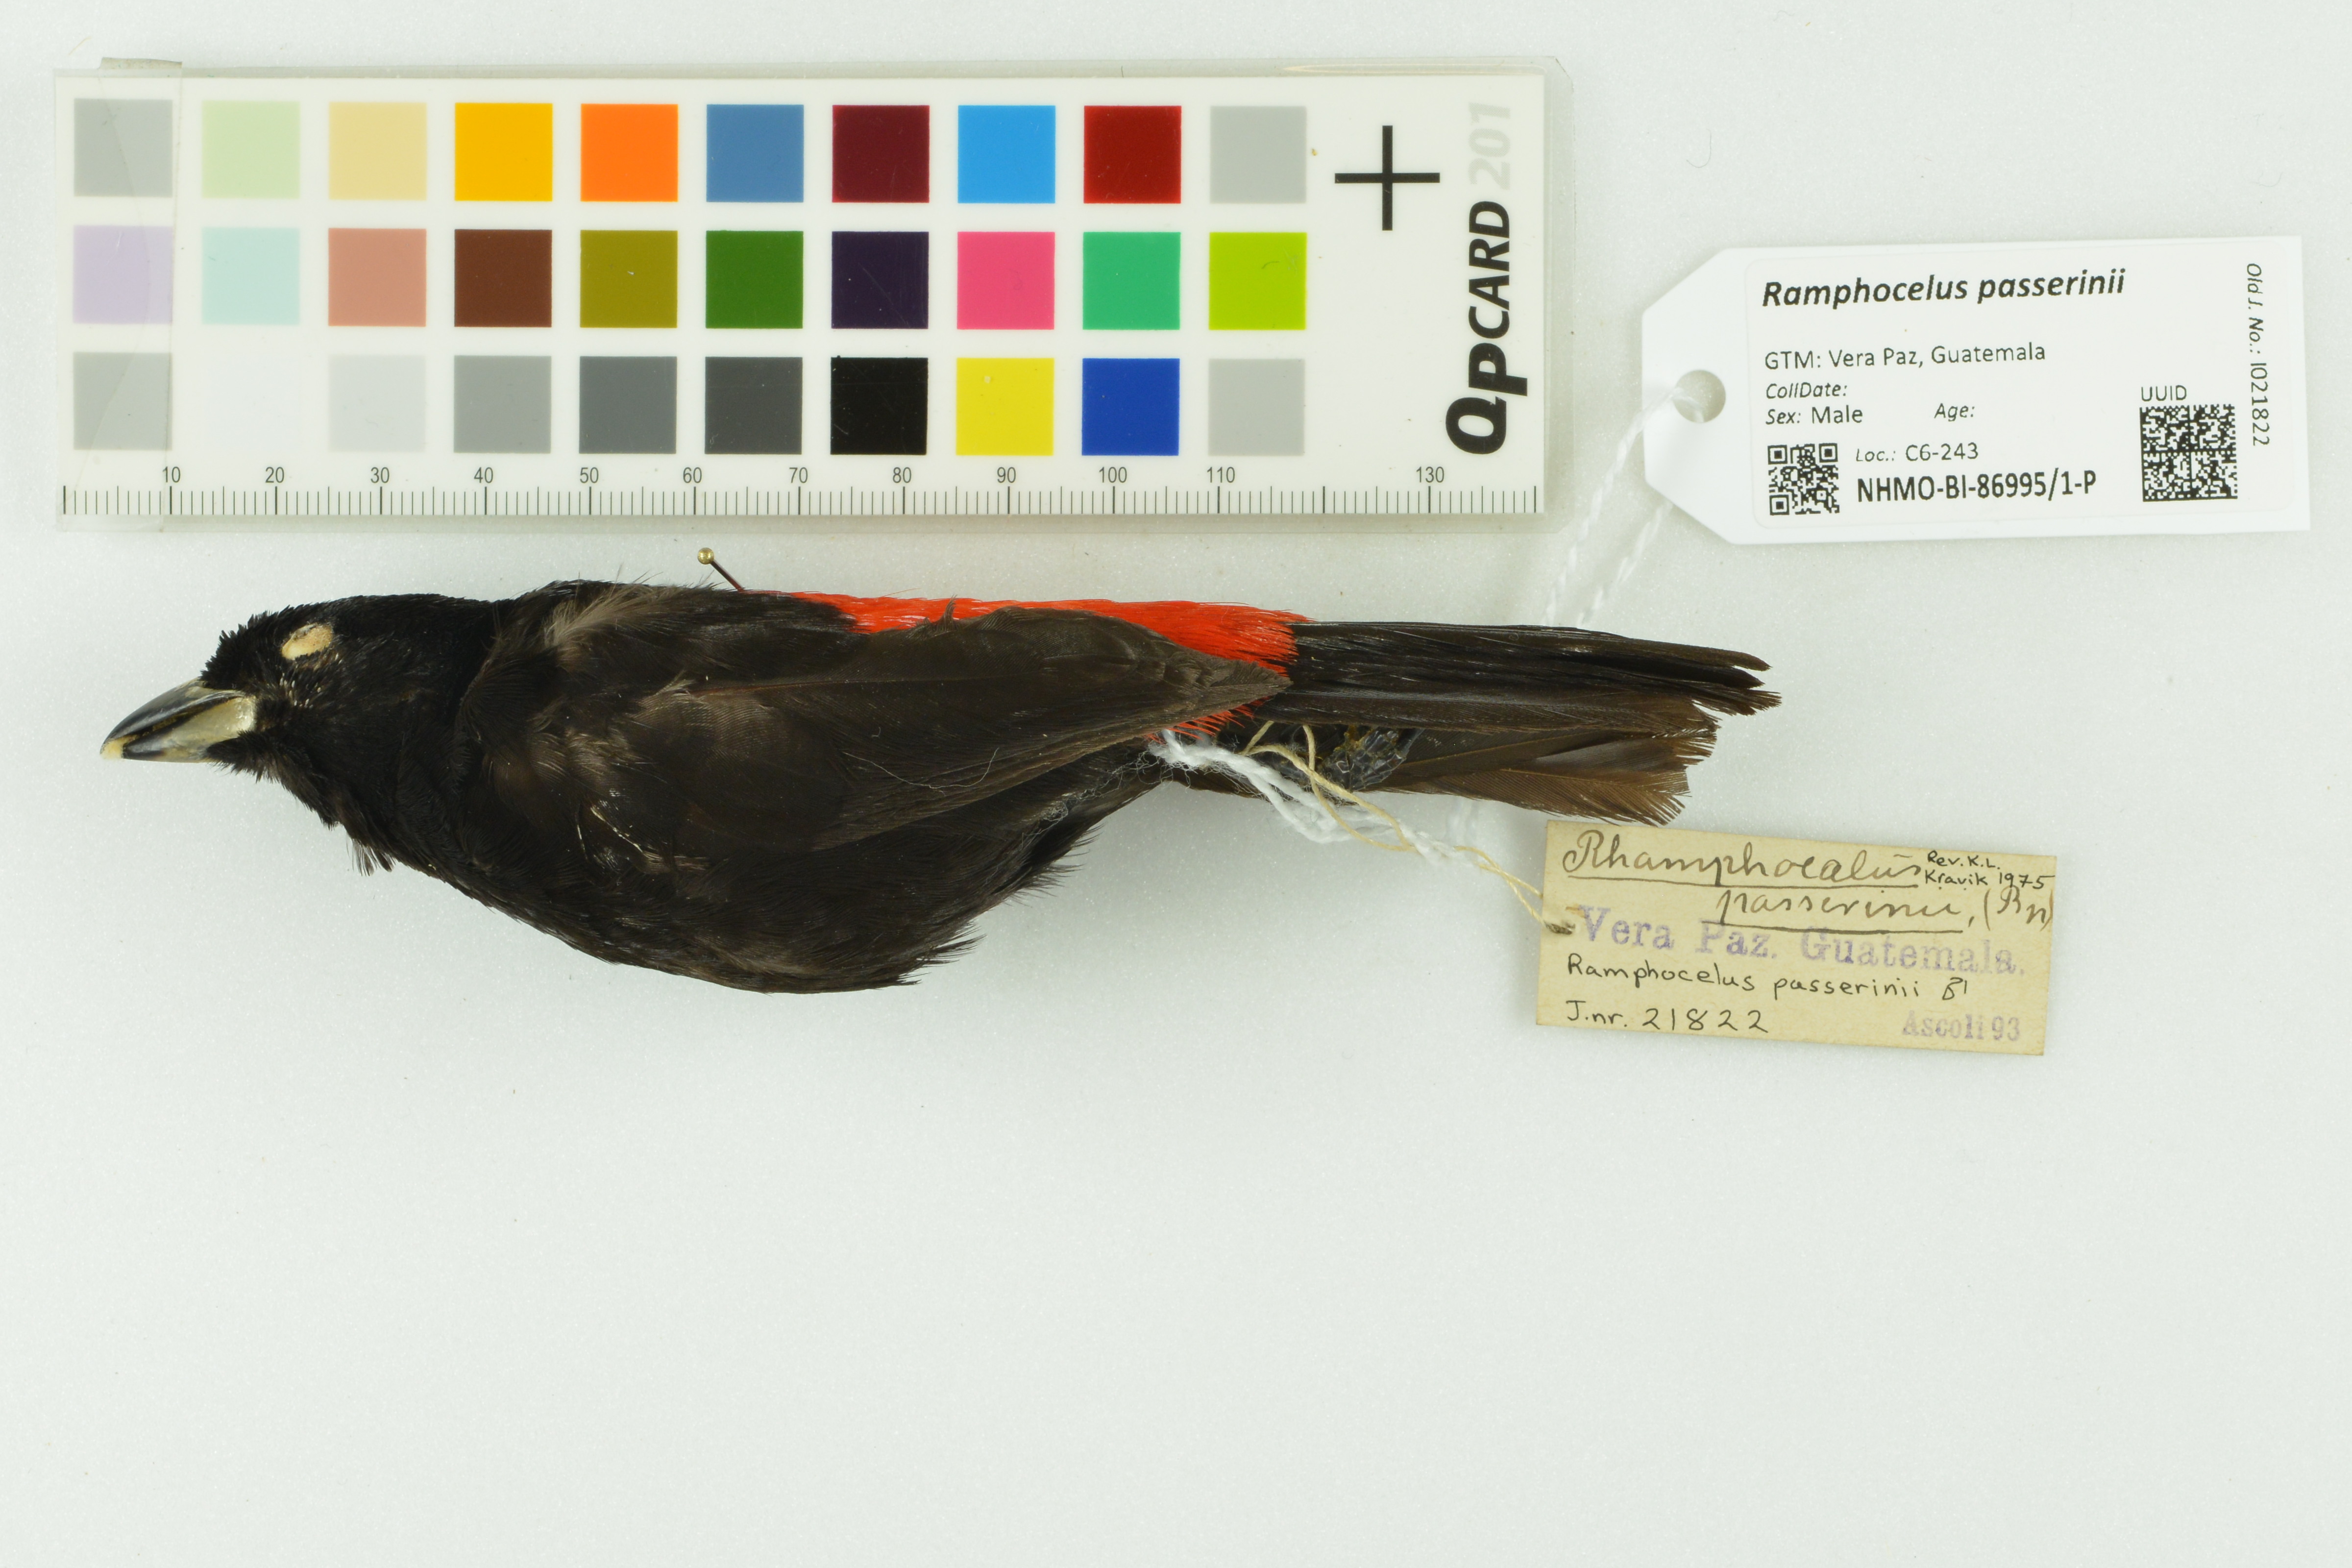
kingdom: Animalia
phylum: Chordata
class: Aves
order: Passeriformes
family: Thraupidae
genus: Ramphocelus
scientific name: Ramphocelus passerinii
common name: Passerini's tanager
